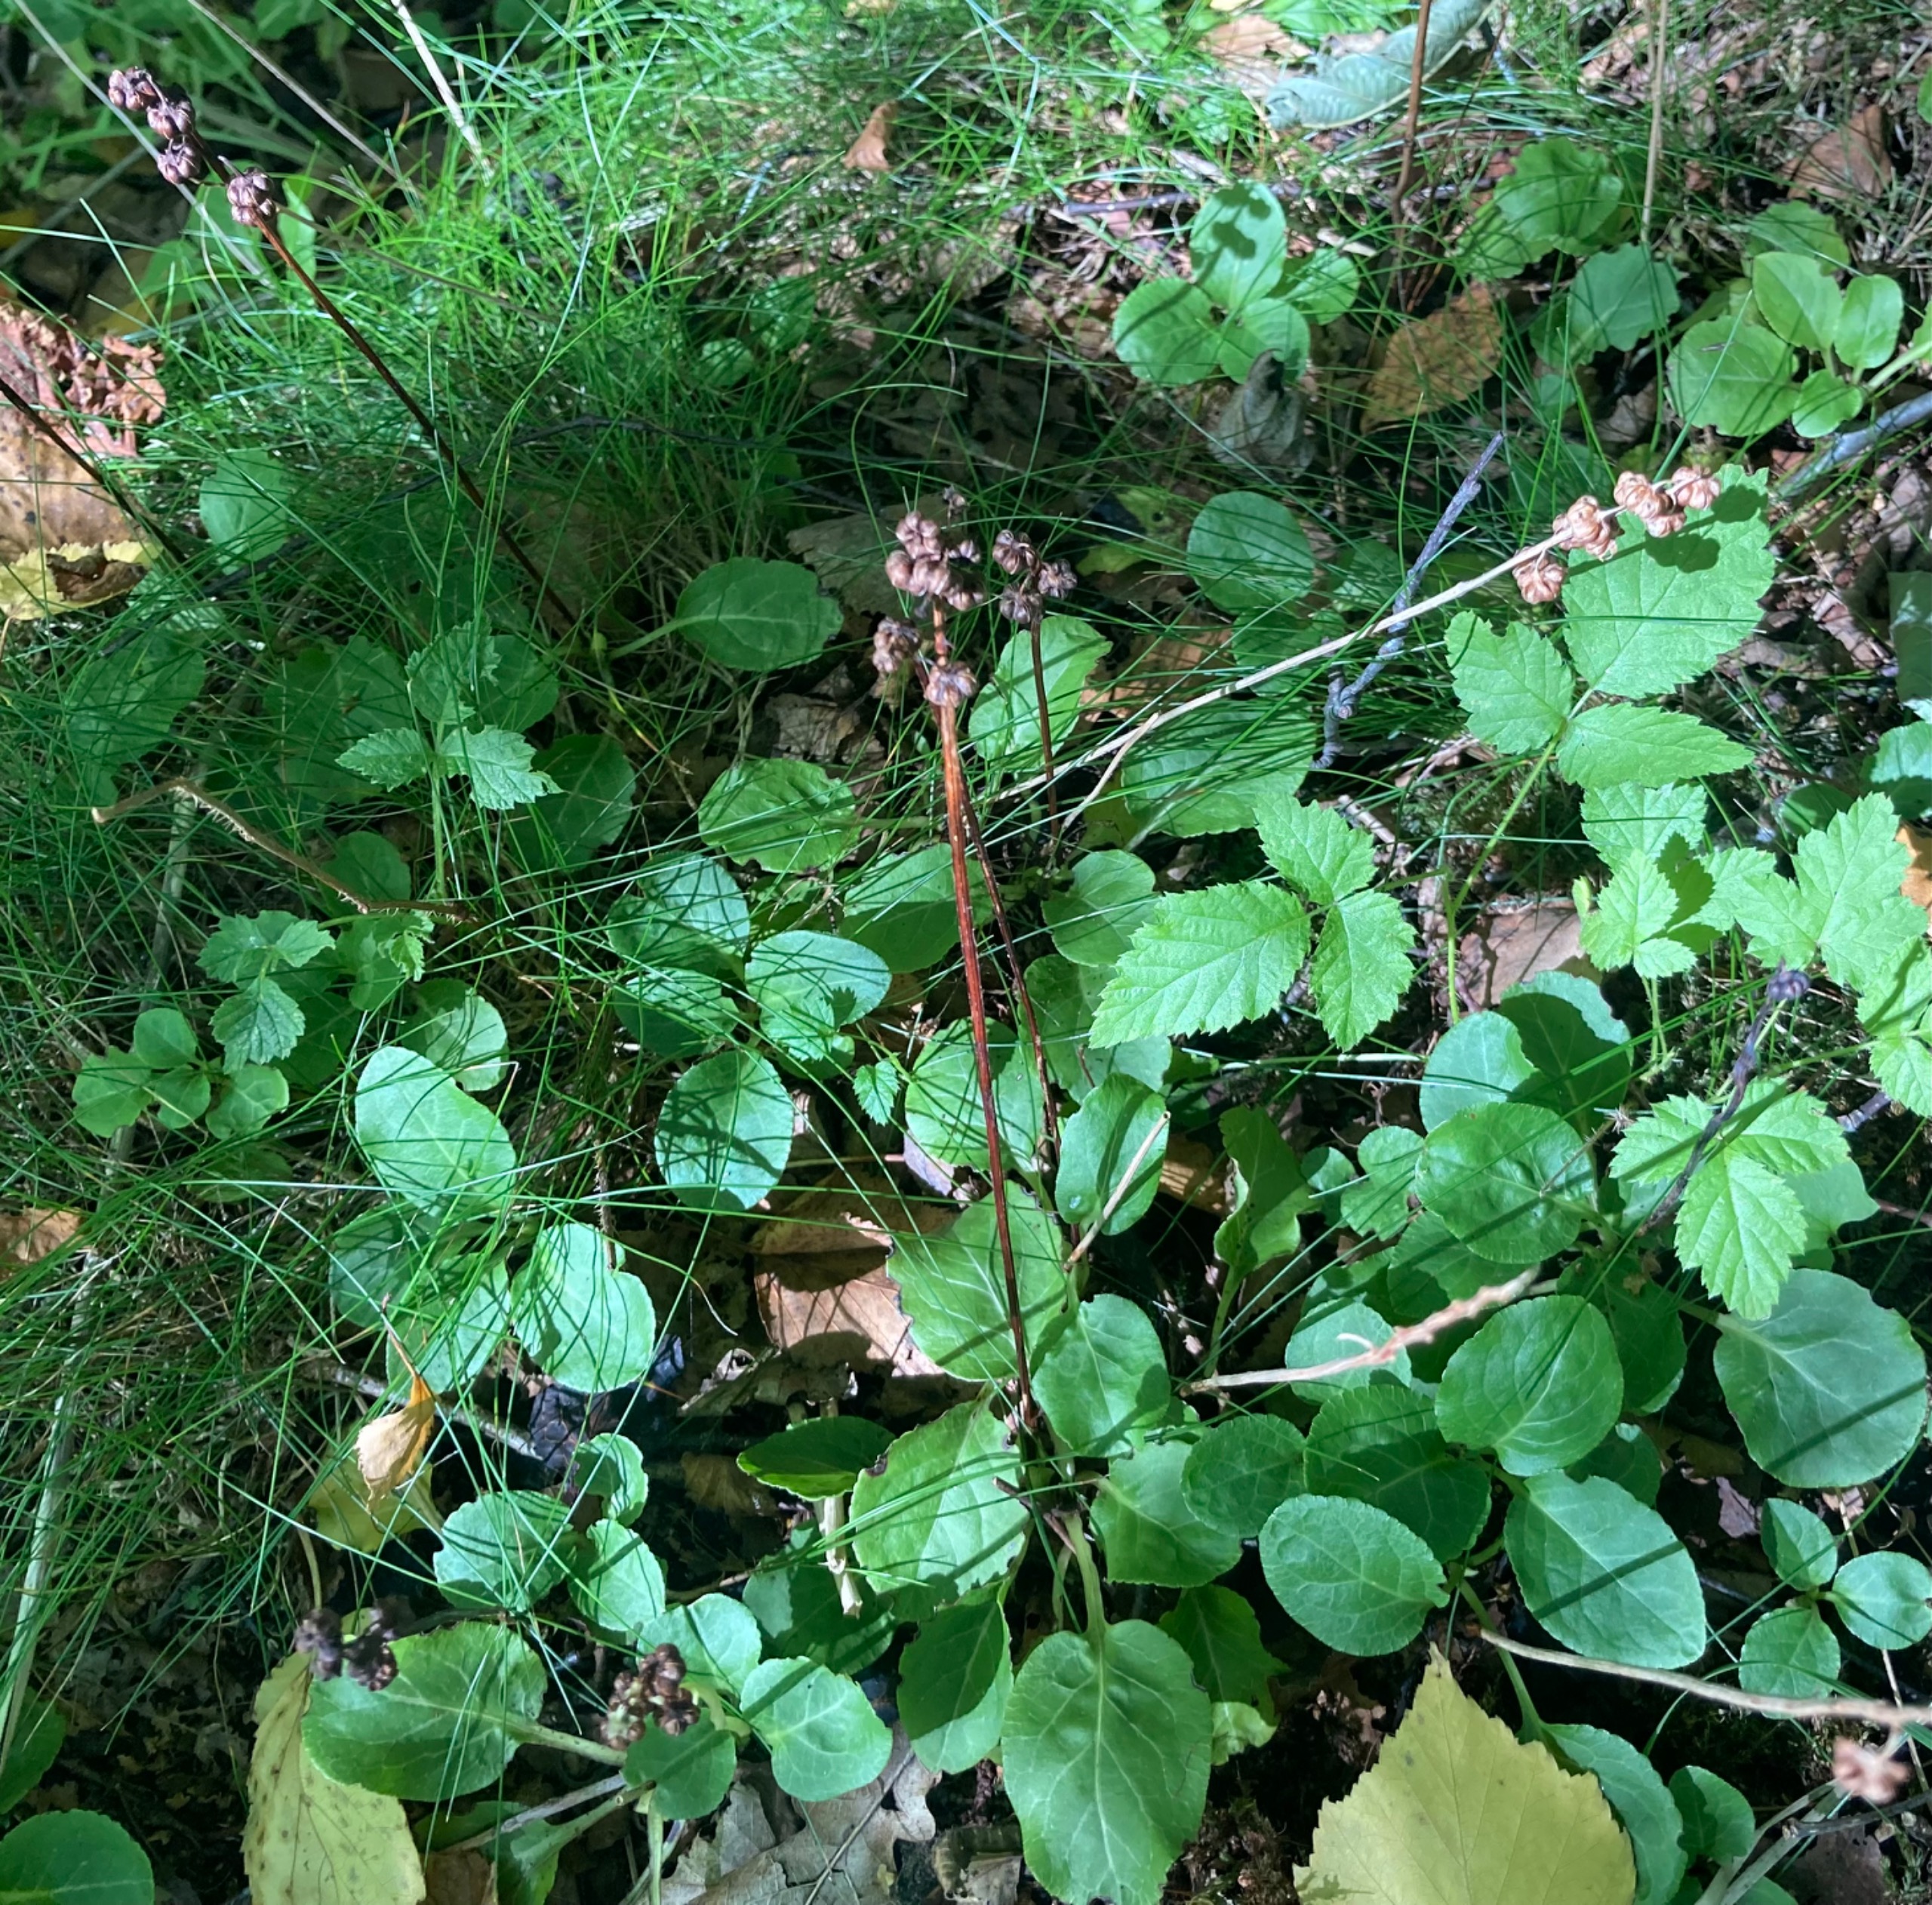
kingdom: Plantae
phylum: Tracheophyta
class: Magnoliopsida
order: Ericales
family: Ericaceae
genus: Pyrola
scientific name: Pyrola minor
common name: Liden vintergrøn
